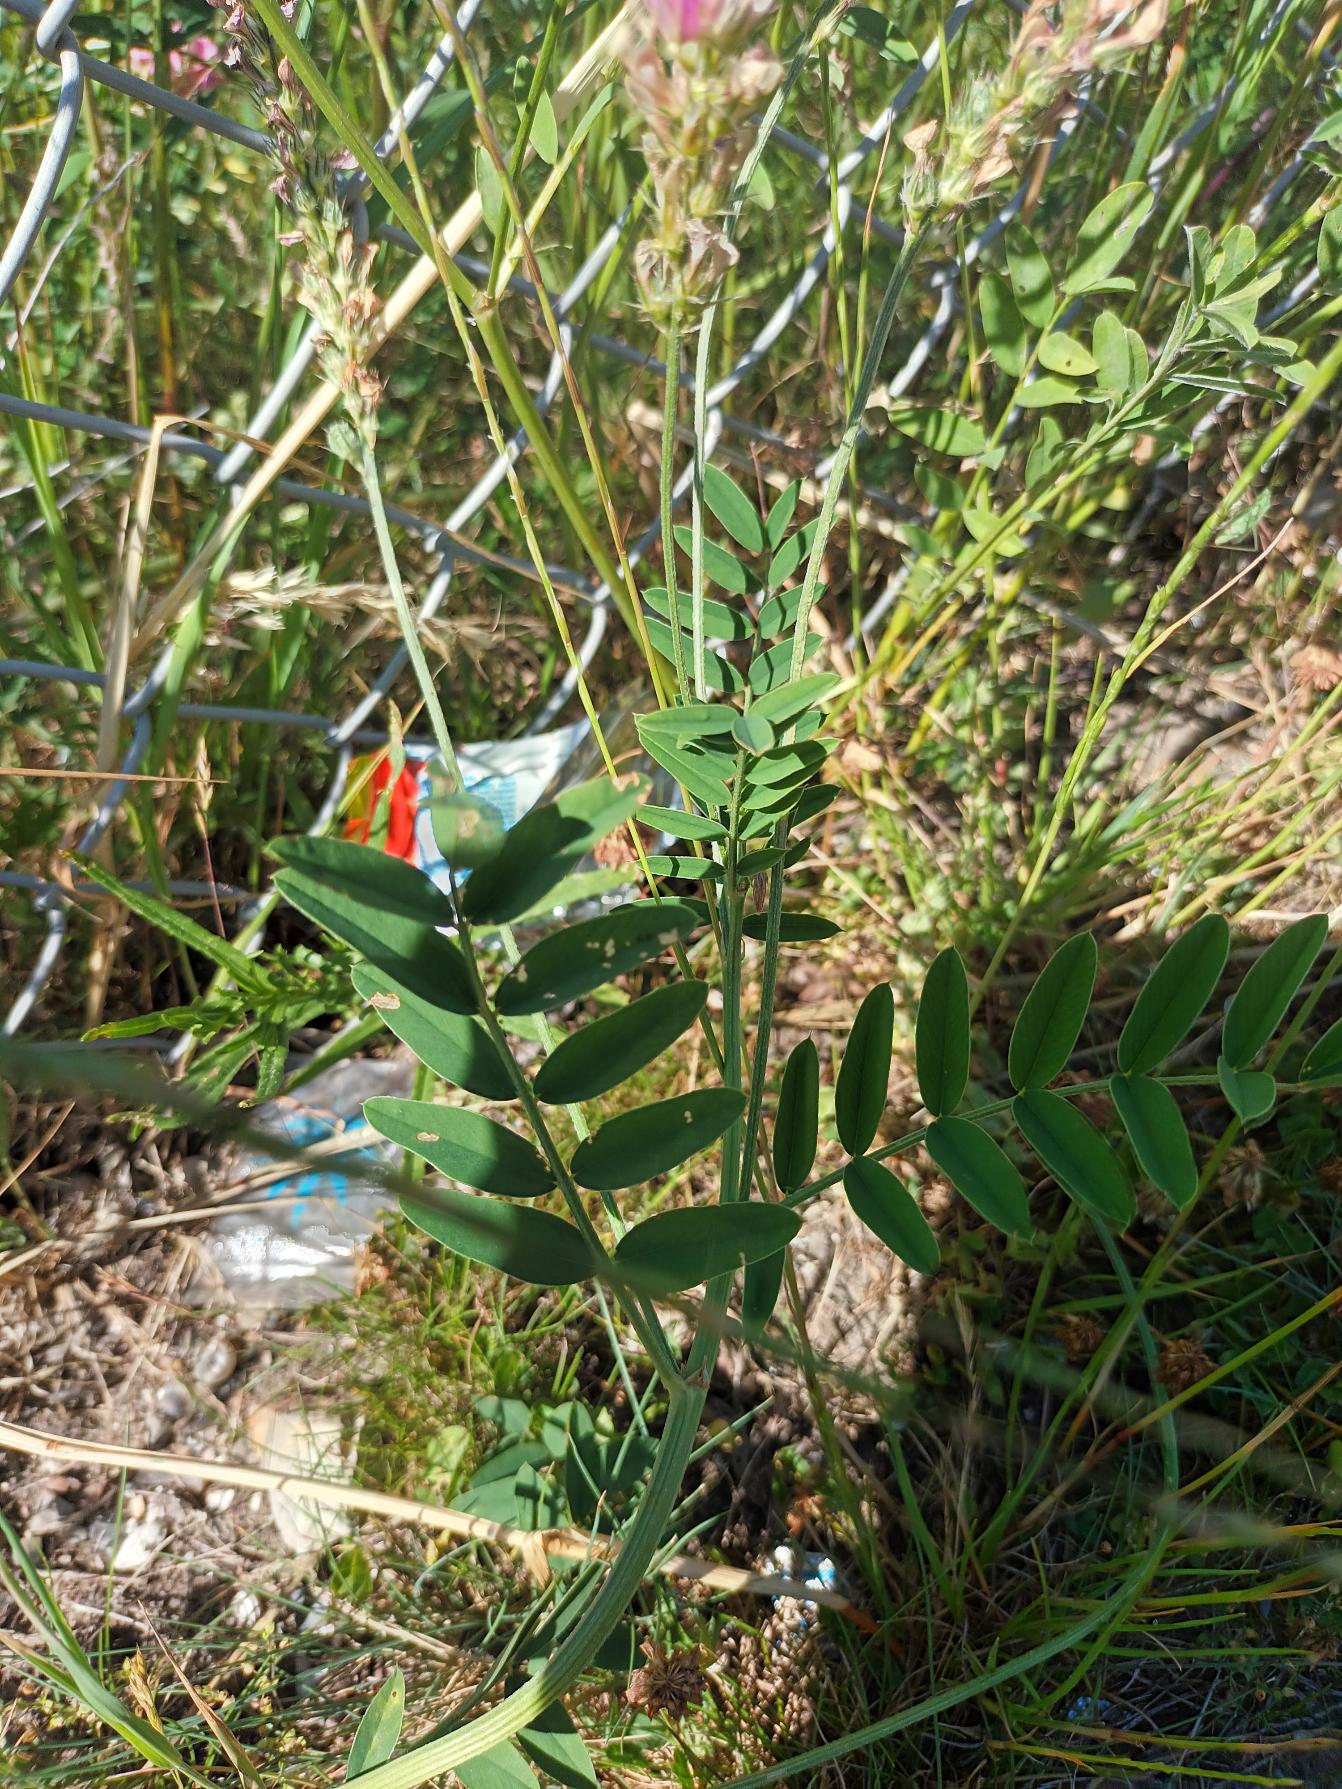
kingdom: Plantae
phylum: Tracheophyta
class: Magnoliopsida
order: Fabales
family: Fabaceae
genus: Onobrychis
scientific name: Onobrychis viciifolia
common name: Esparsette
